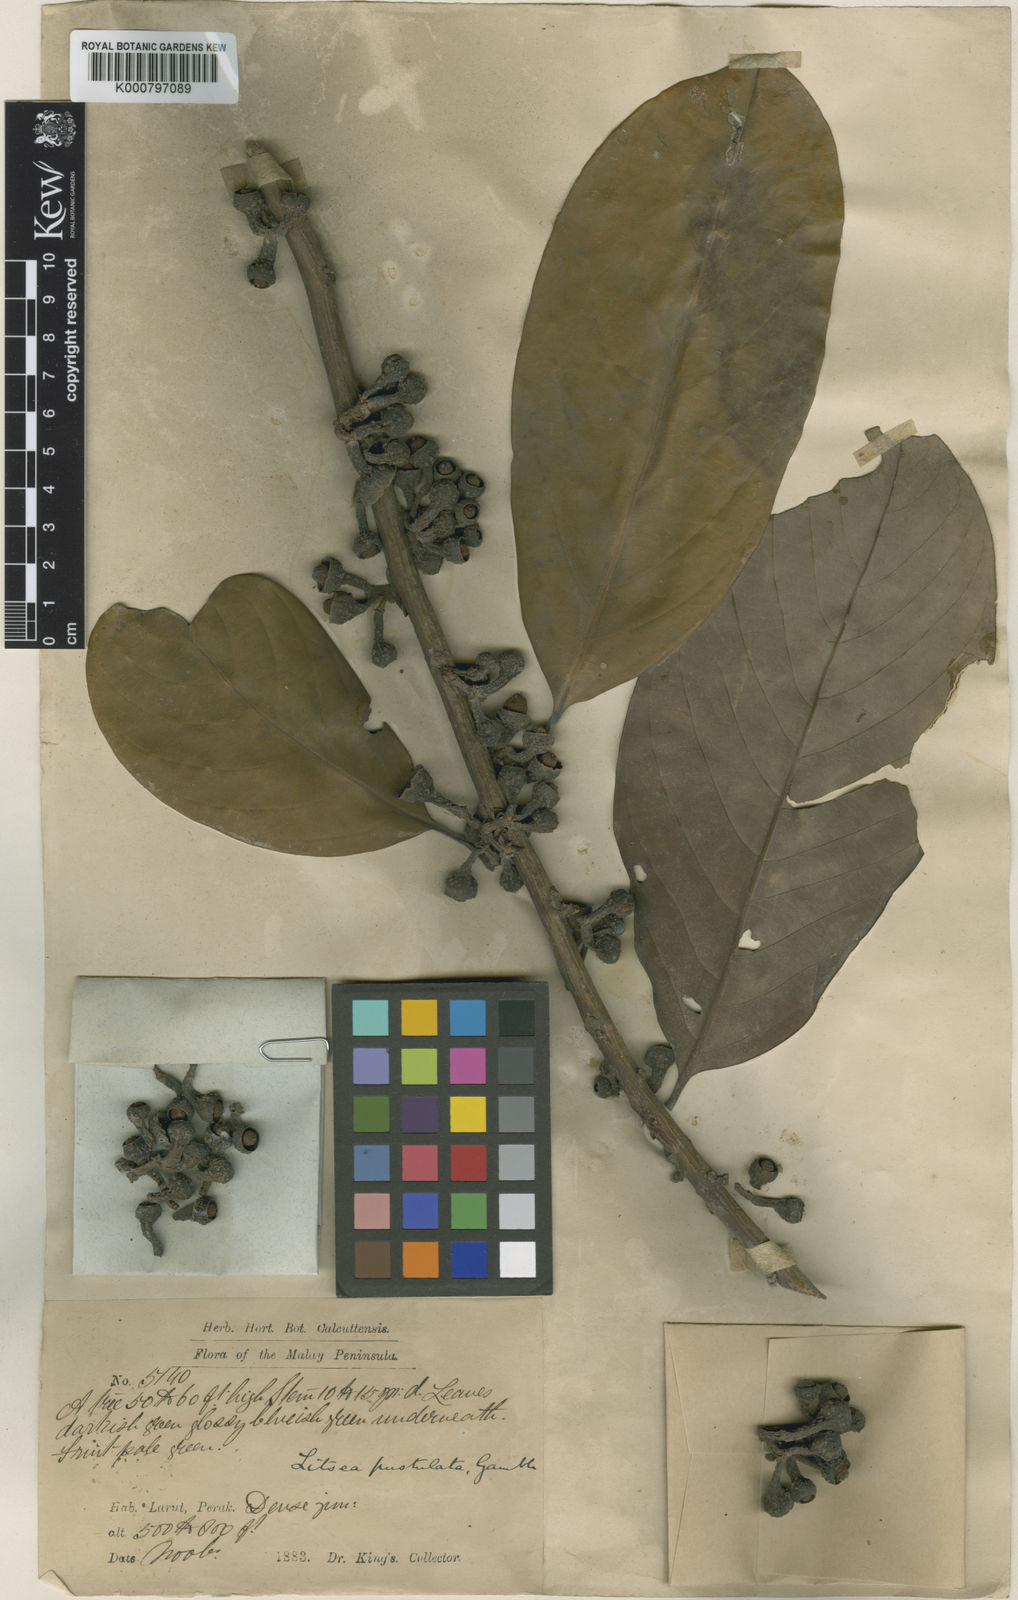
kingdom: Plantae
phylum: Tracheophyta
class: Magnoliopsida
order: Laurales
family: Lauraceae
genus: Litsea
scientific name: Litsea accedens
